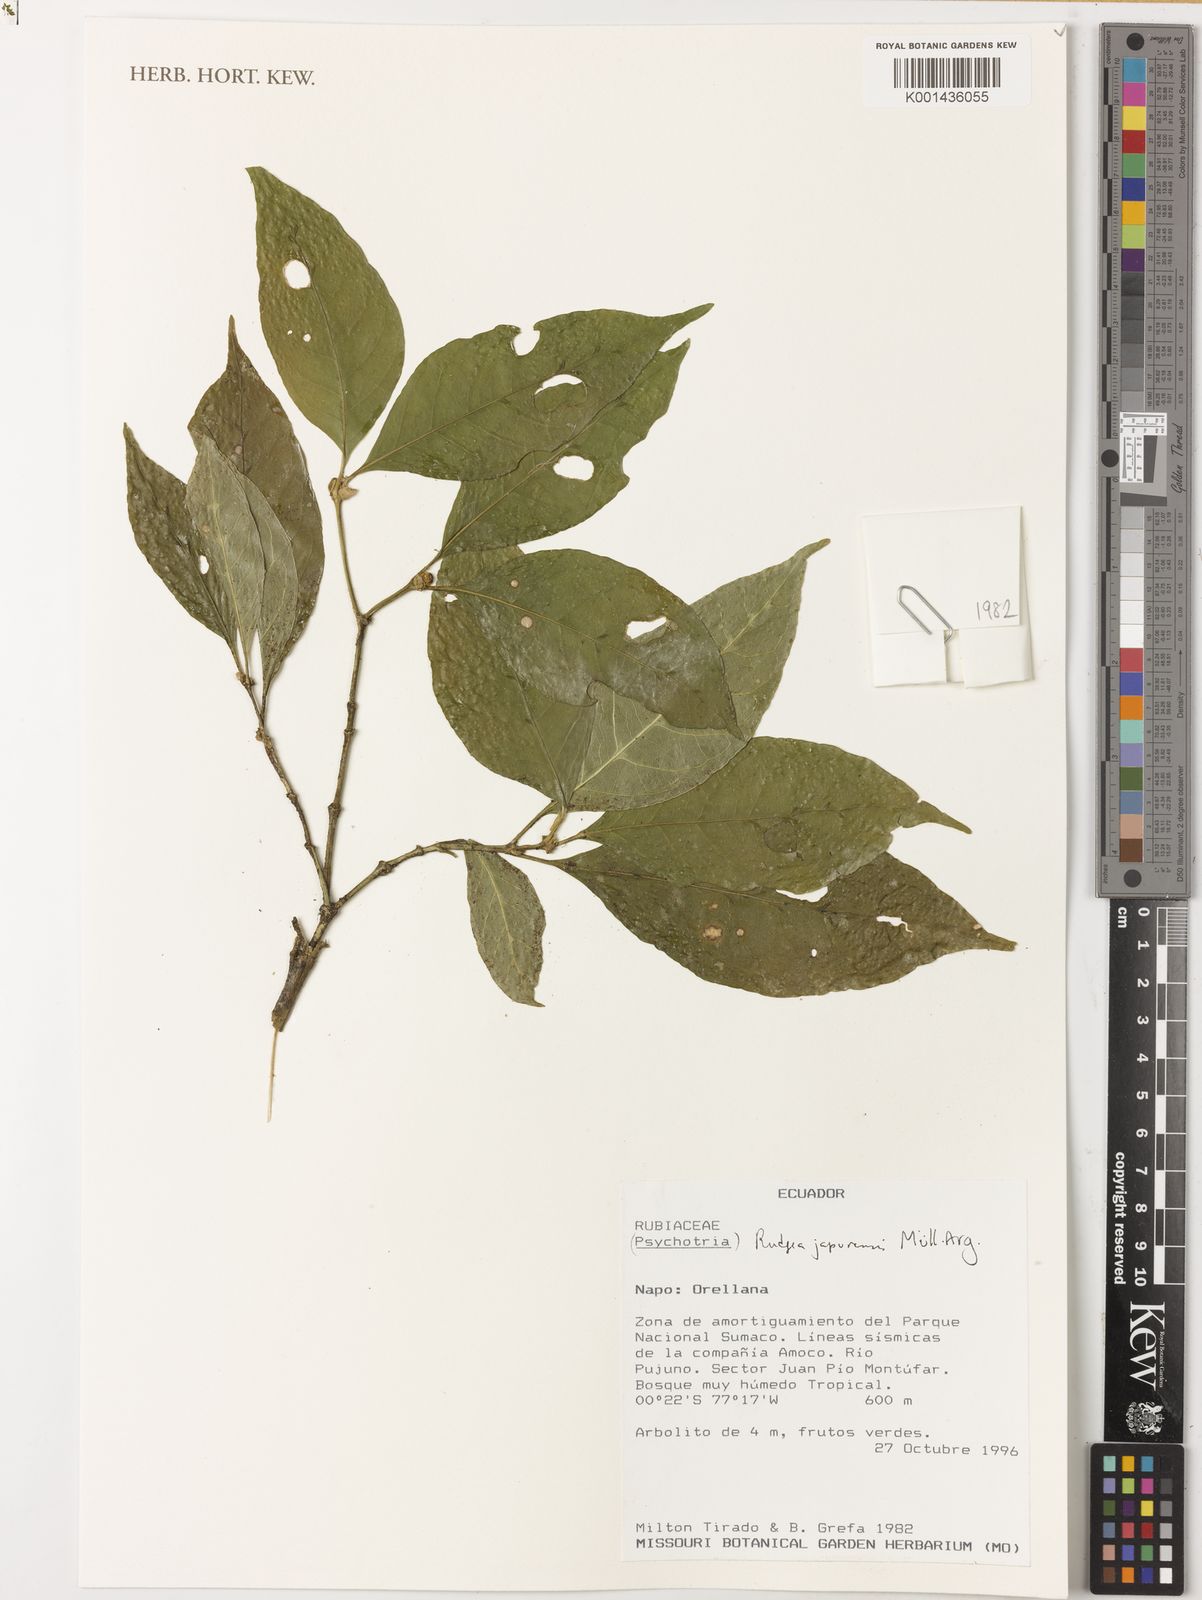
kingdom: Plantae
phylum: Tracheophyta
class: Magnoliopsida
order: Gentianales
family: Rubiaceae
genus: Rudgea
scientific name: Rudgea
